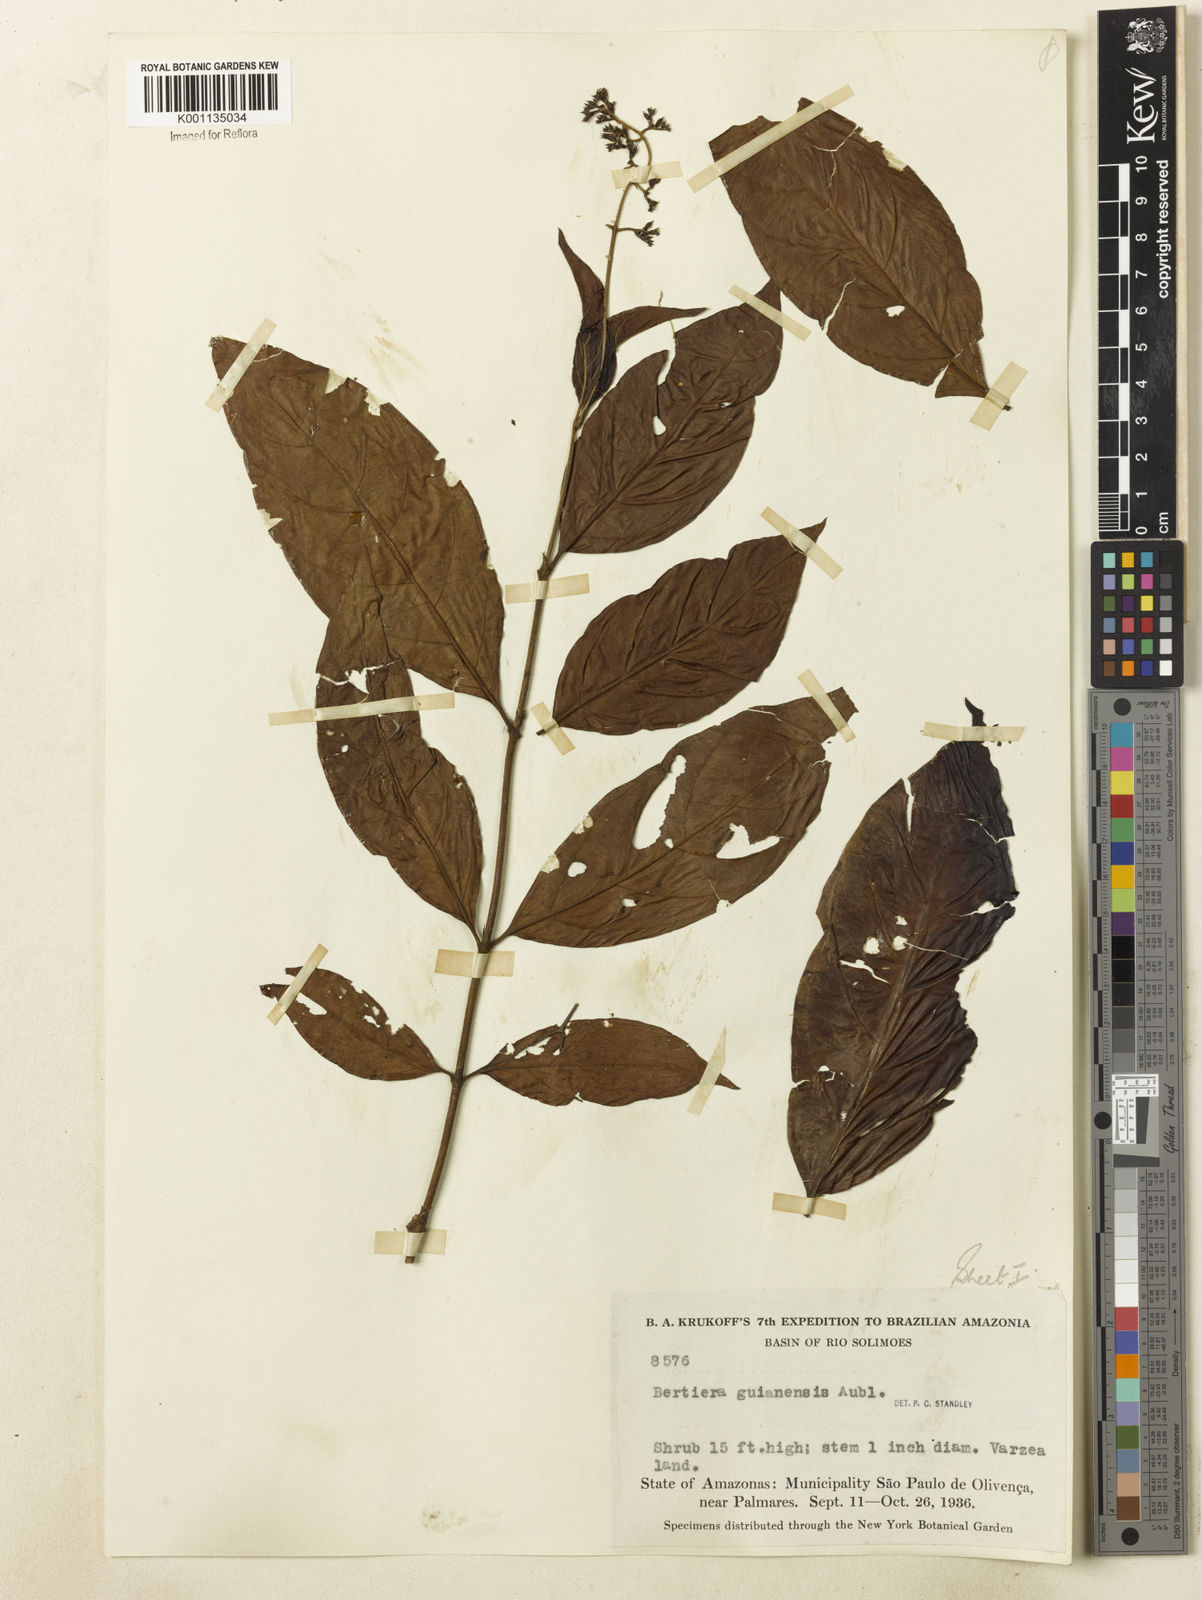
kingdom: Plantae
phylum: Tracheophyta
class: Magnoliopsida
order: Gentianales
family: Rubiaceae
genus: Bertiera
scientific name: Bertiera guianensis
